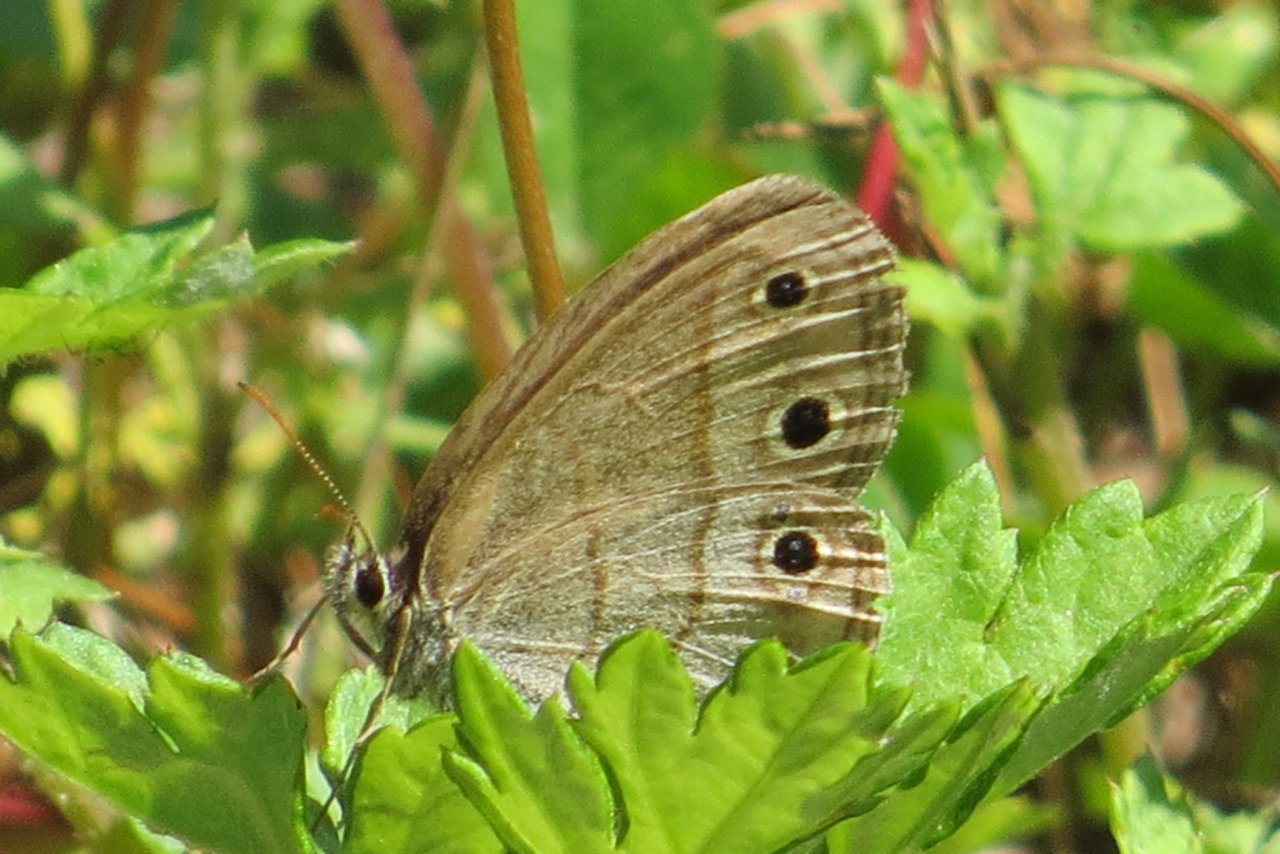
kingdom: Animalia
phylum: Arthropoda
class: Insecta
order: Lepidoptera
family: Nymphalidae
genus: Euptychia
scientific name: Euptychia cymela
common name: Little Wood Satyr
